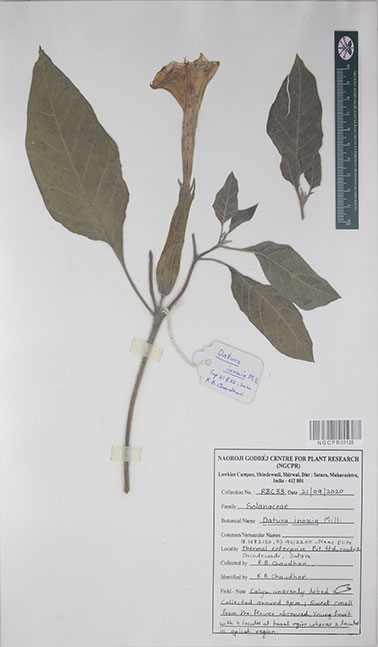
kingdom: Plantae
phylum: Tracheophyta
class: Magnoliopsida
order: Solanales
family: Solanaceae
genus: Datura
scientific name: Datura innoxia
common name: Downy thorn-apple
